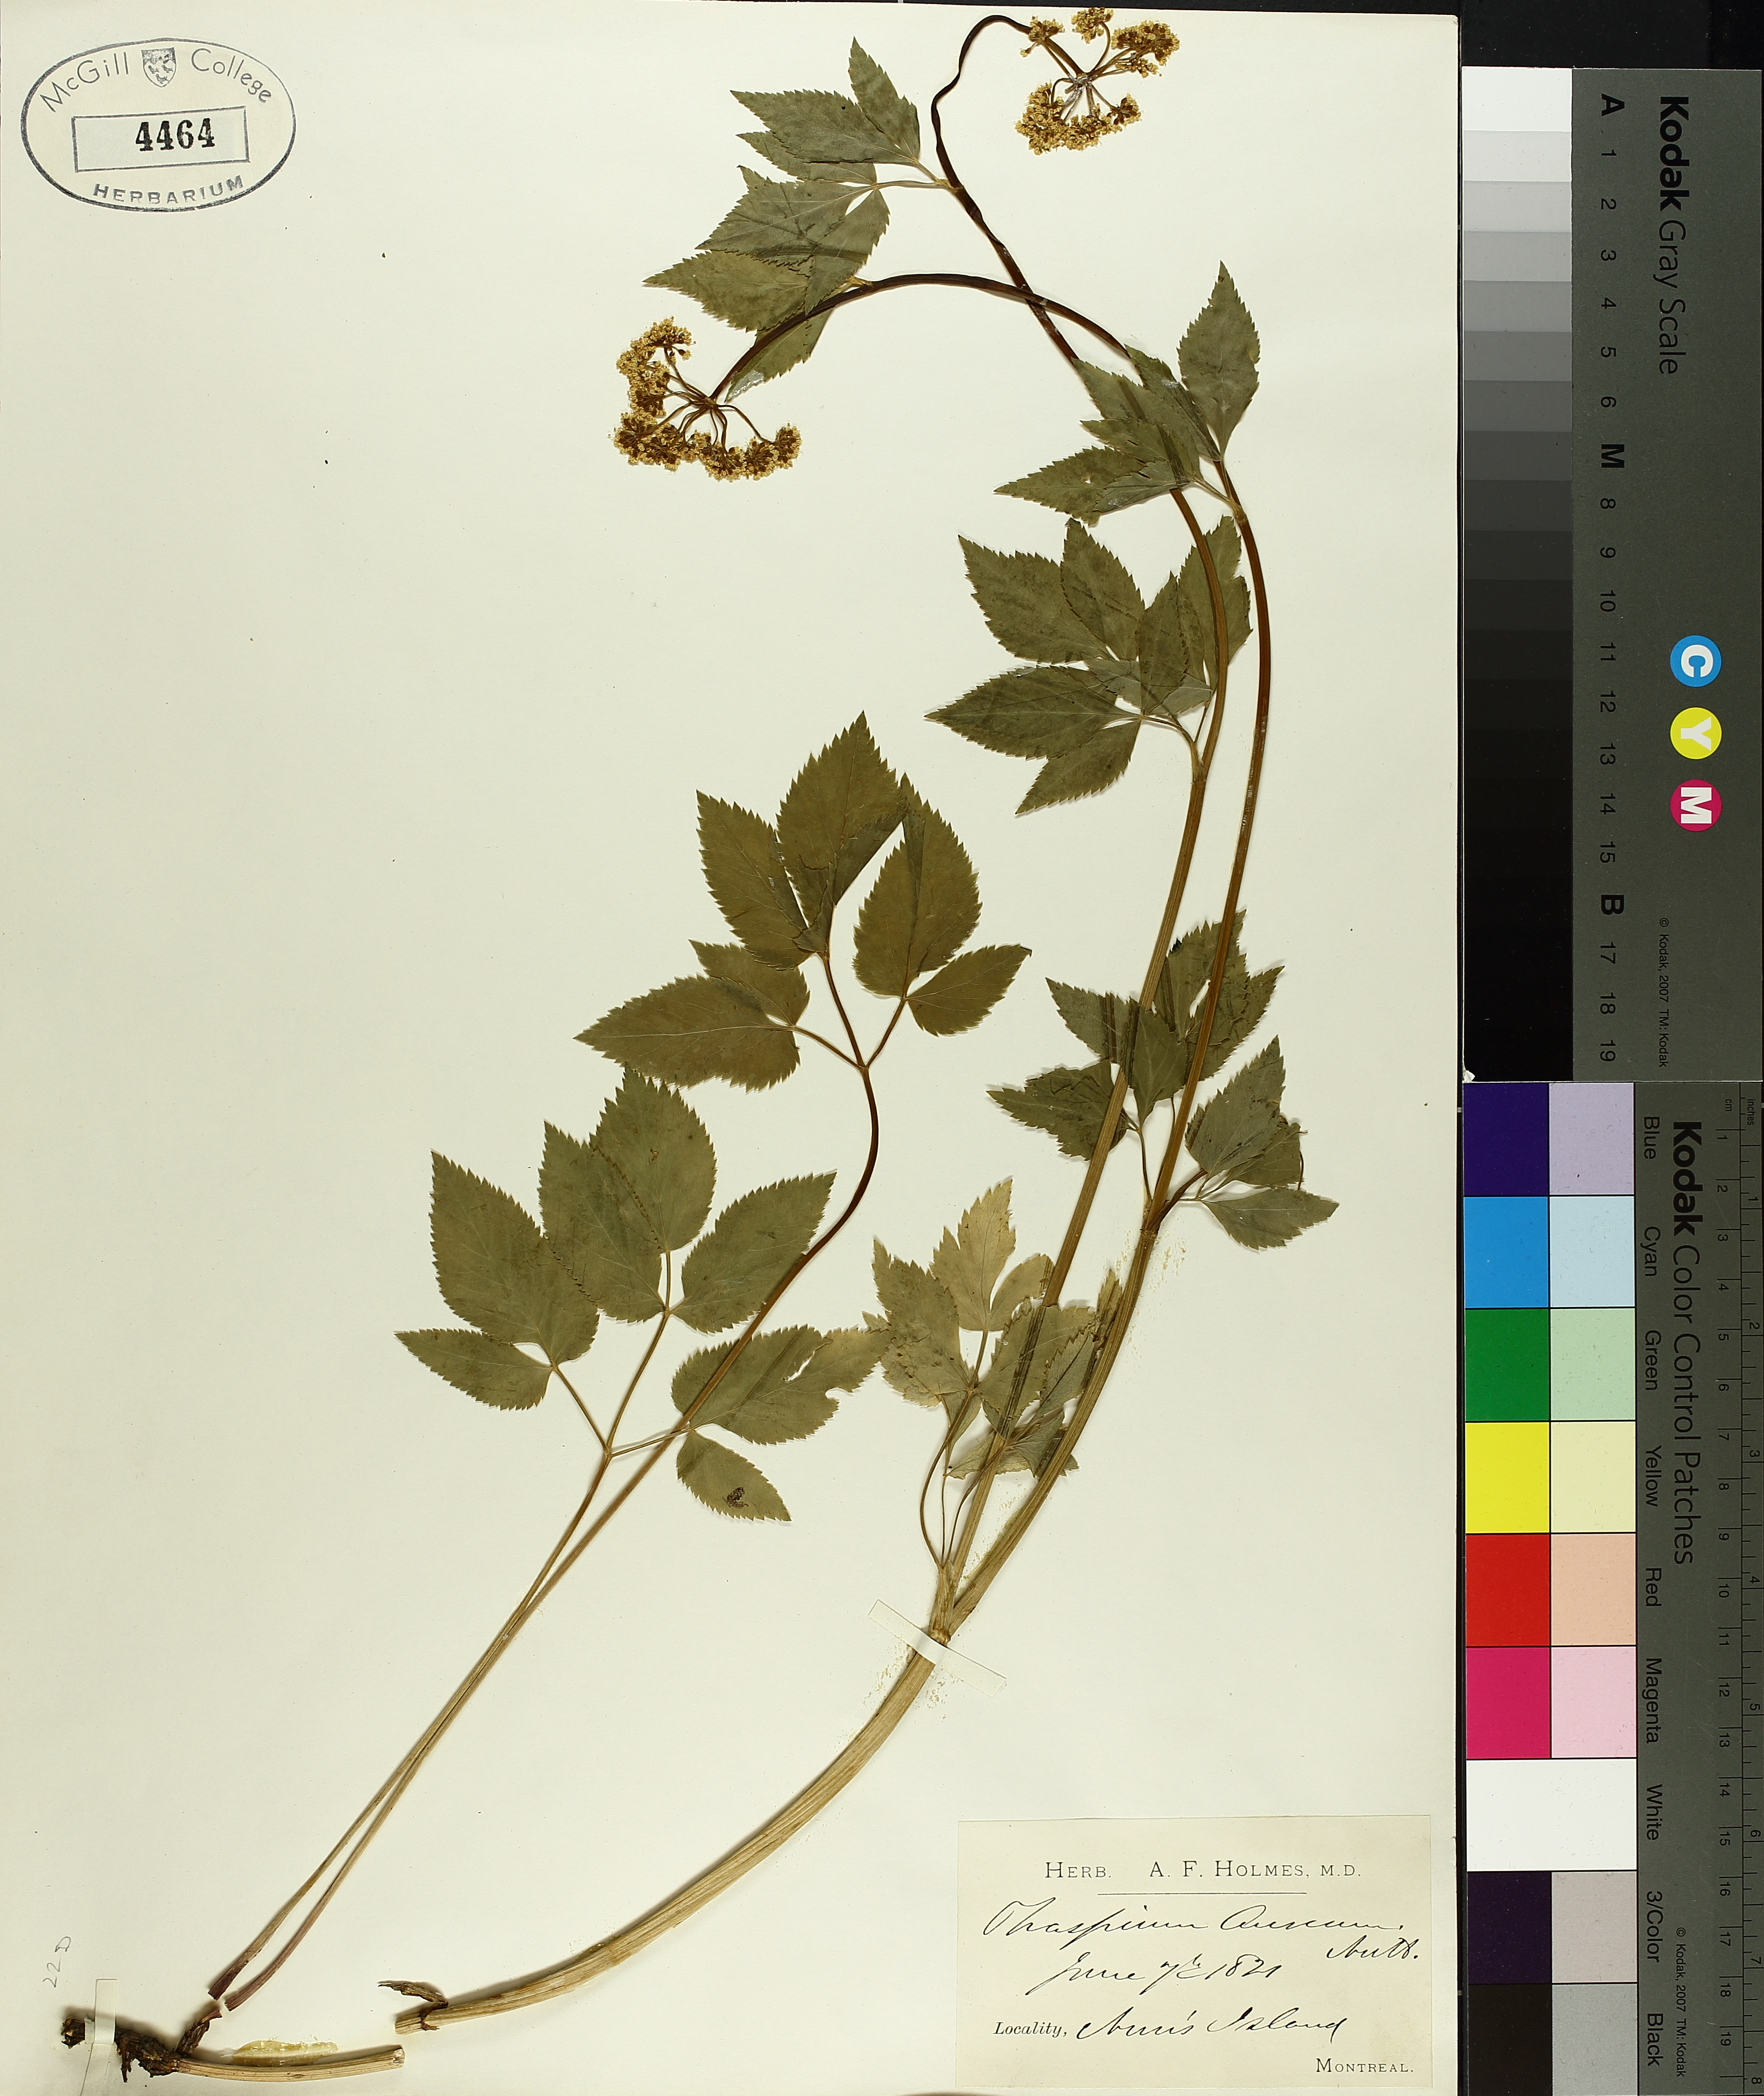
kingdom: Plantae
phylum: Tracheophyta
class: Magnoliopsida
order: Apiales
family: Apiaceae
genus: Zizia
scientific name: Zizia aurea
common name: Golden alexanders
